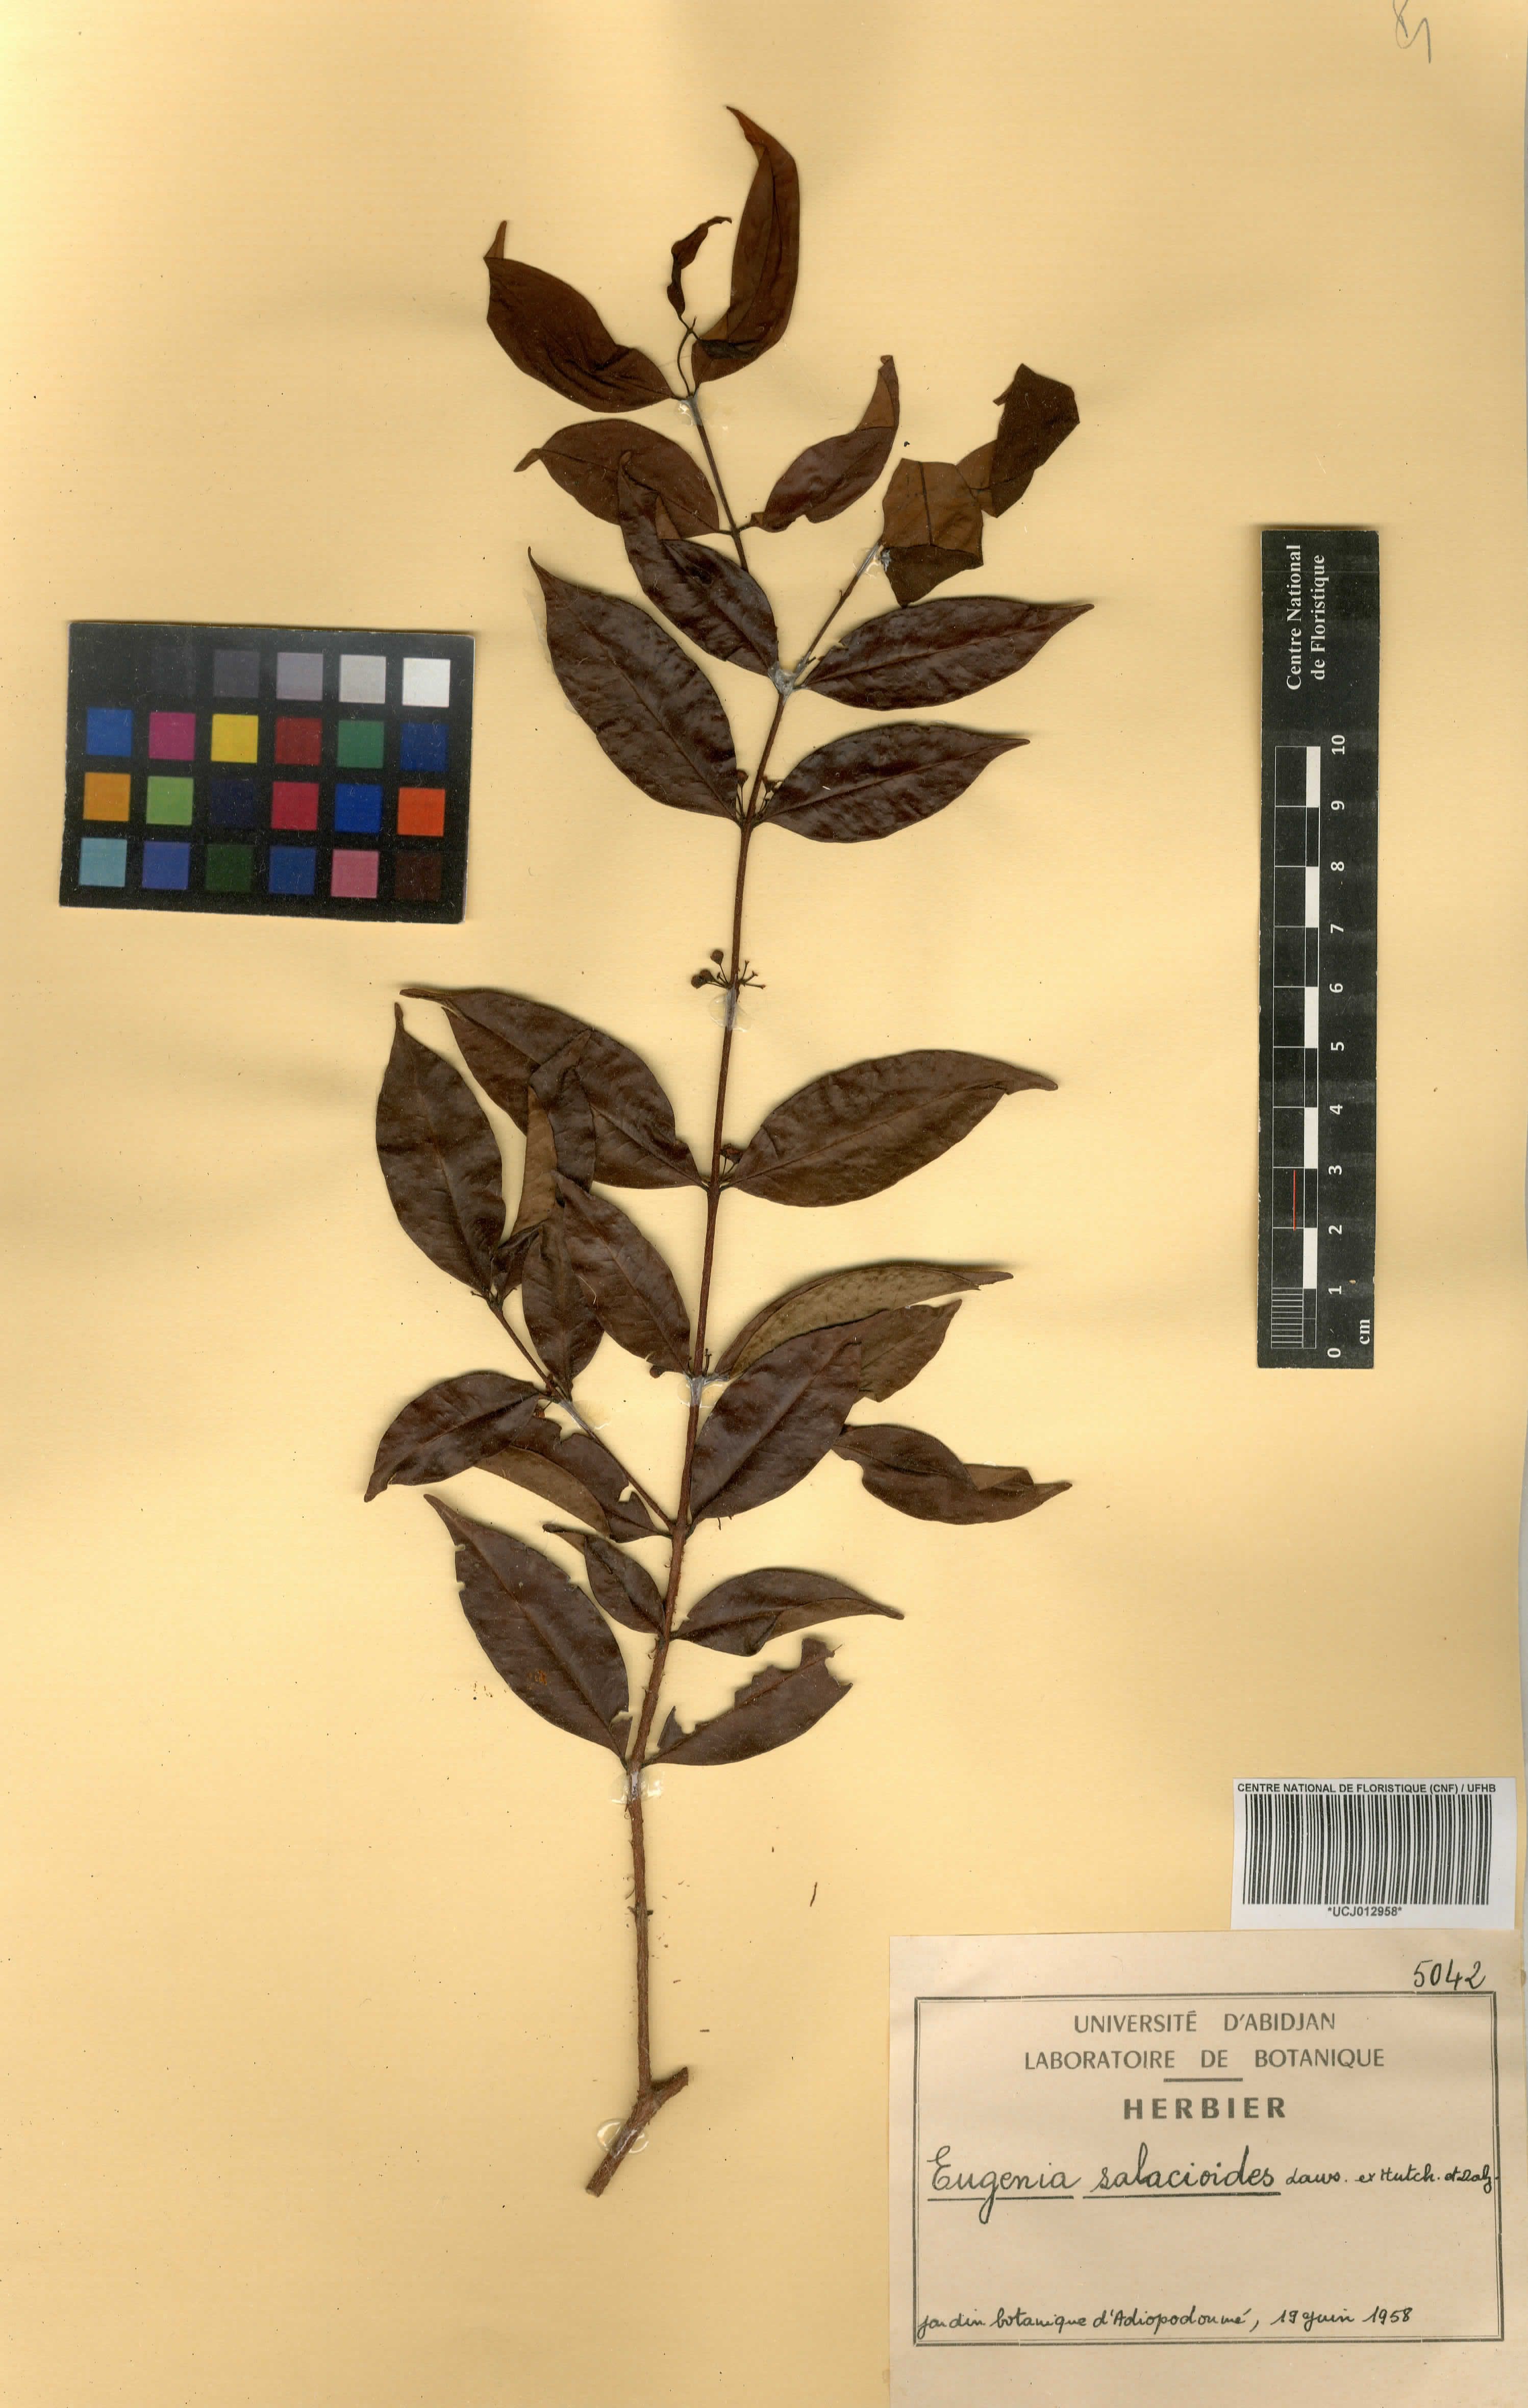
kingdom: Plantae
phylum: Tracheophyta
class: Magnoliopsida
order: Myrtales
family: Myrtaceae
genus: Eugenia
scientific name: Eugenia salacioides
